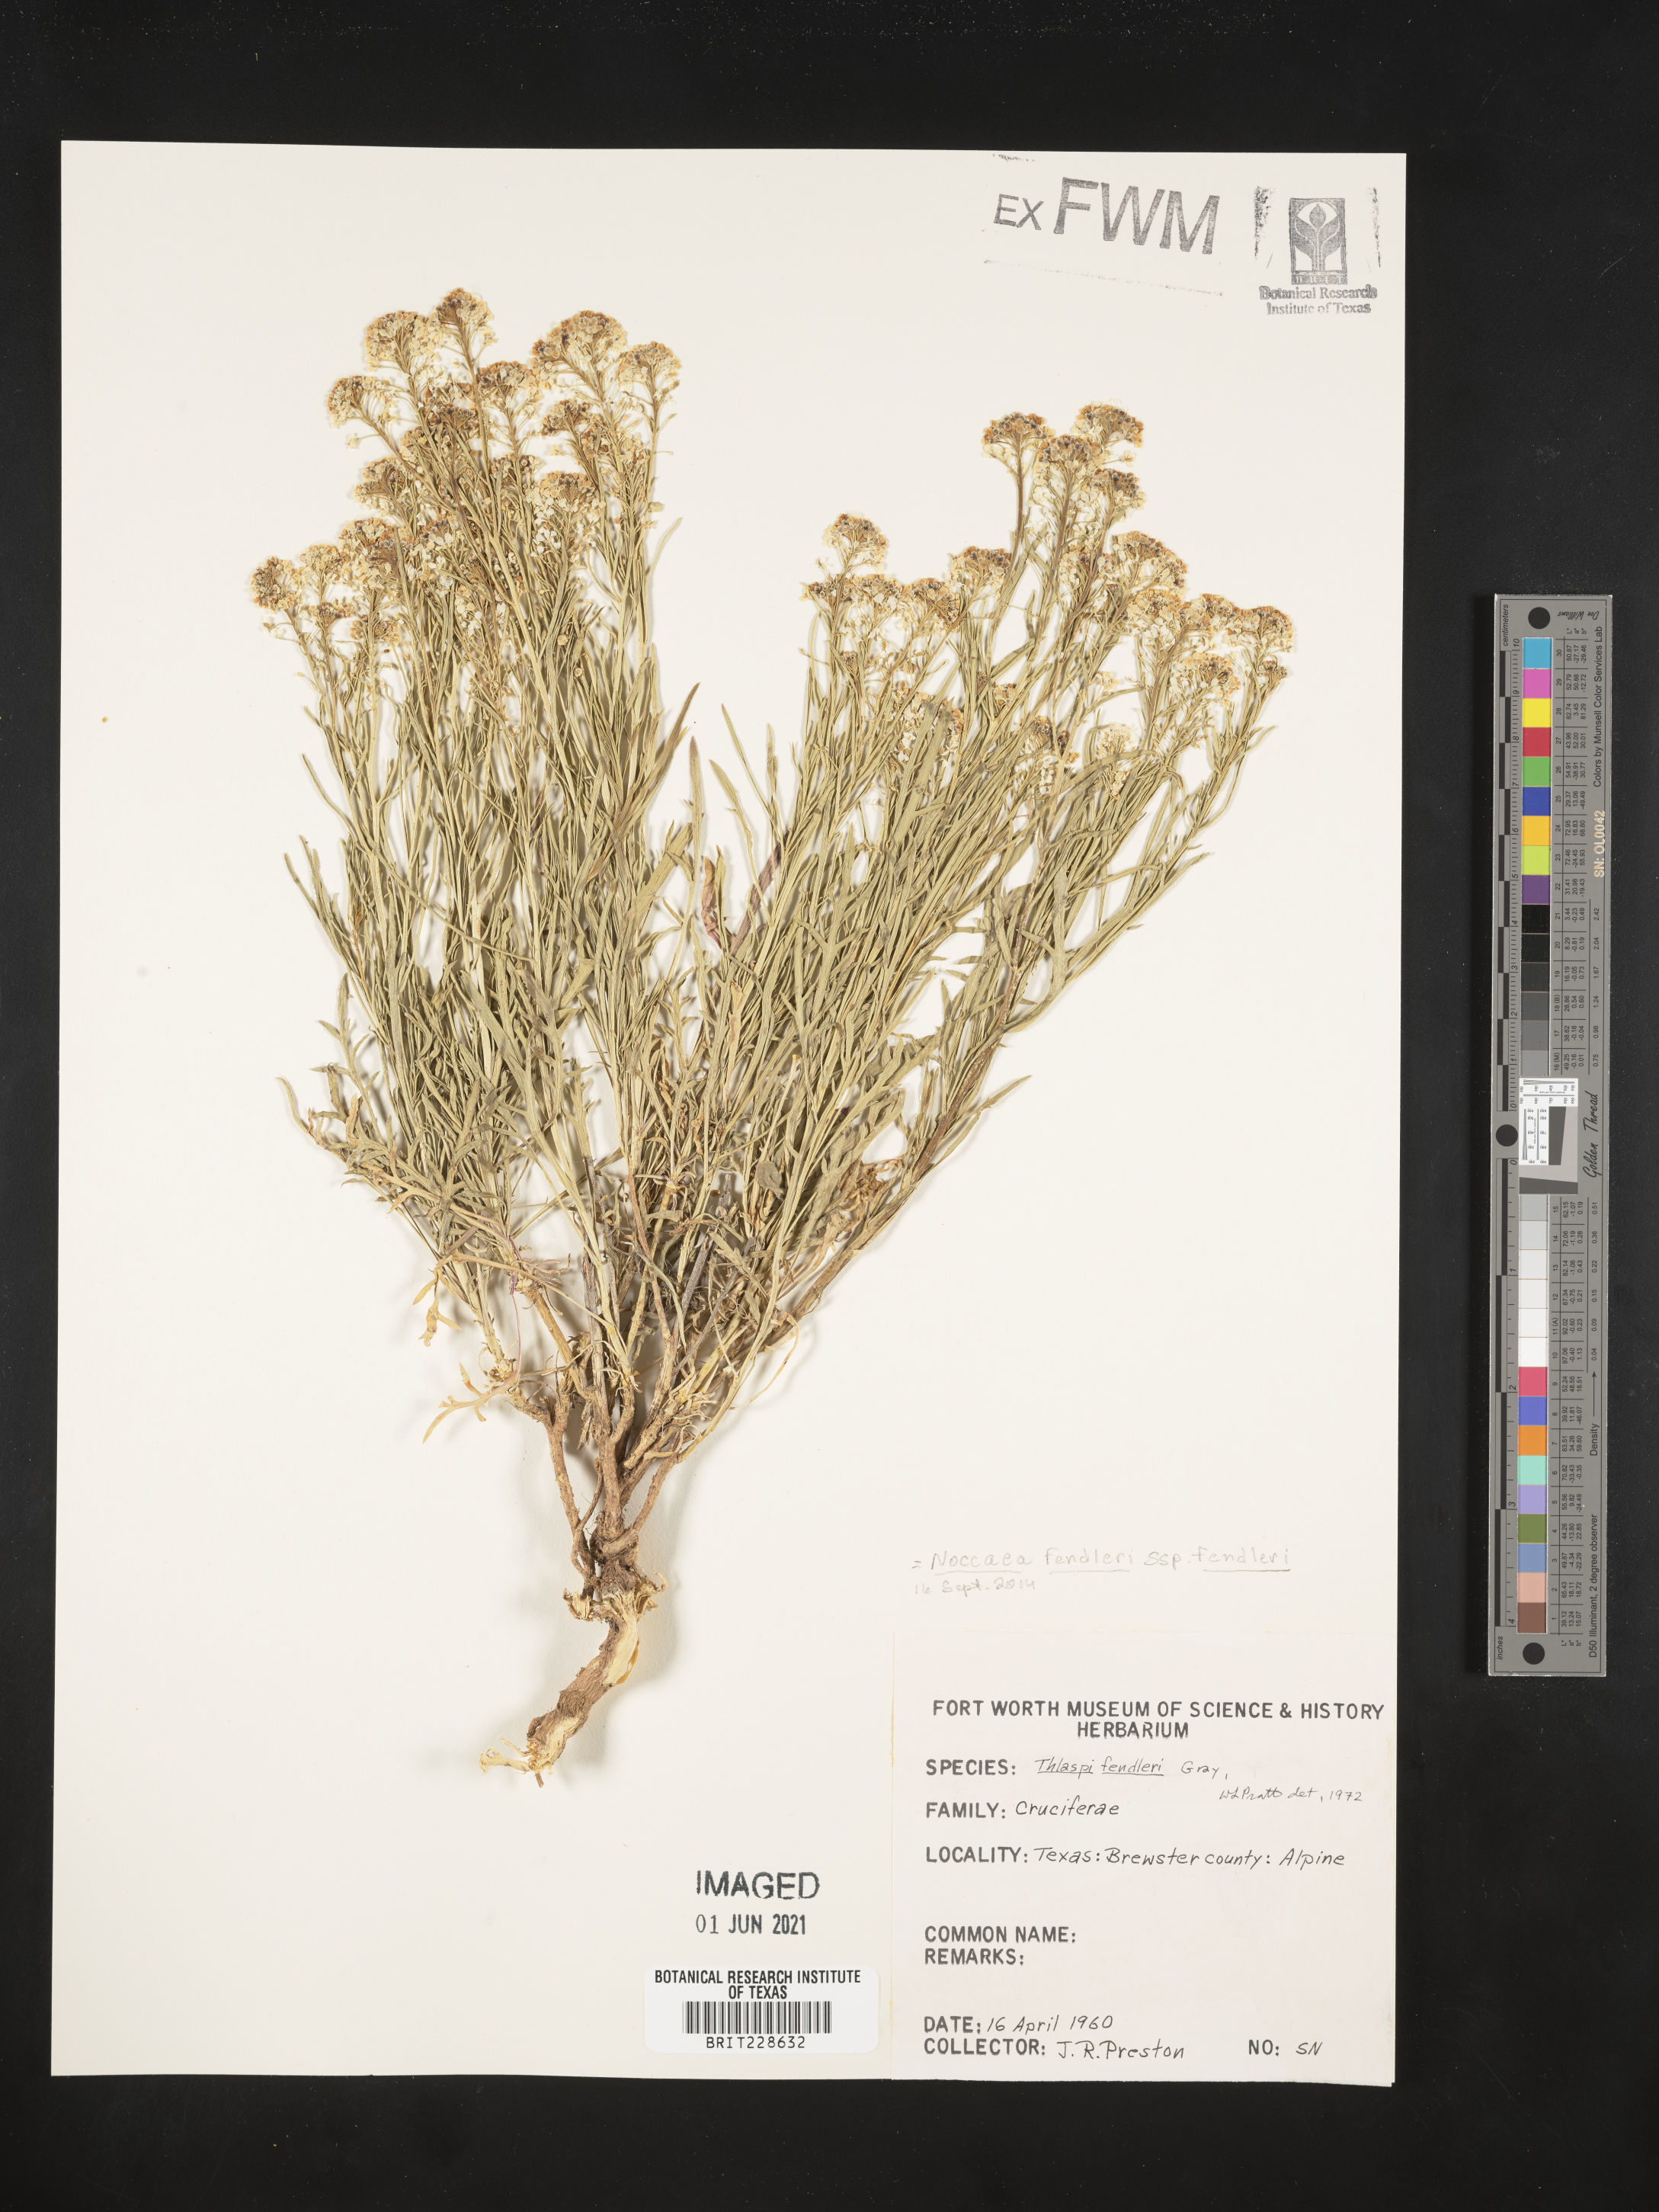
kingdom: Plantae
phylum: Tracheophyta
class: Magnoliopsida
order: Brassicales
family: Brassicaceae
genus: Noccaea
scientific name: Noccaea fendleri
